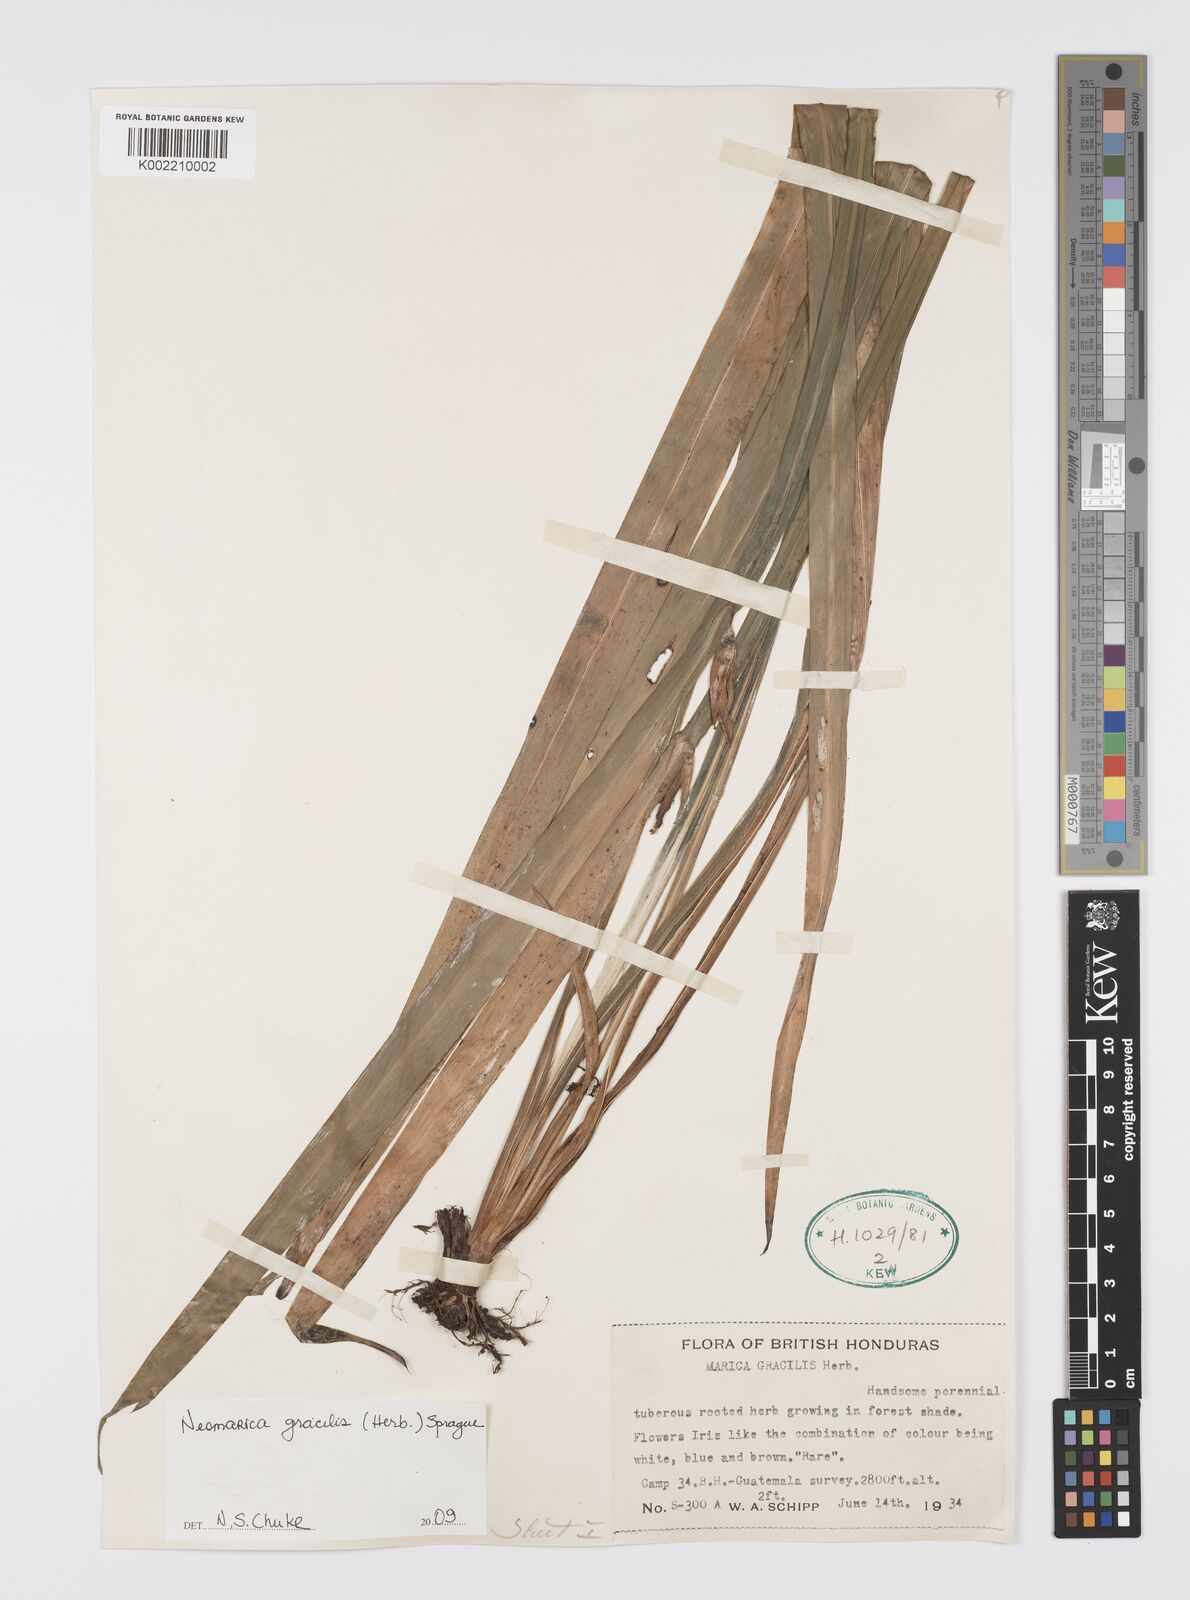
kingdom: Plantae
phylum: Tracheophyta
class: Liliopsida
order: Asparagales
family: Iridaceae
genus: Trimezia
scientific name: Trimezia gracilis
